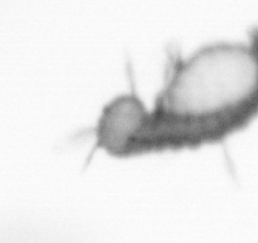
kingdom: Animalia
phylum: Annelida
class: Polychaeta
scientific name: Polychaeta
